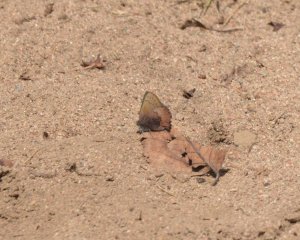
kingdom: Animalia
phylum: Arthropoda
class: Insecta
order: Lepidoptera
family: Lycaenidae
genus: Incisalia
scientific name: Incisalia irioides
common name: Brown Elfin
